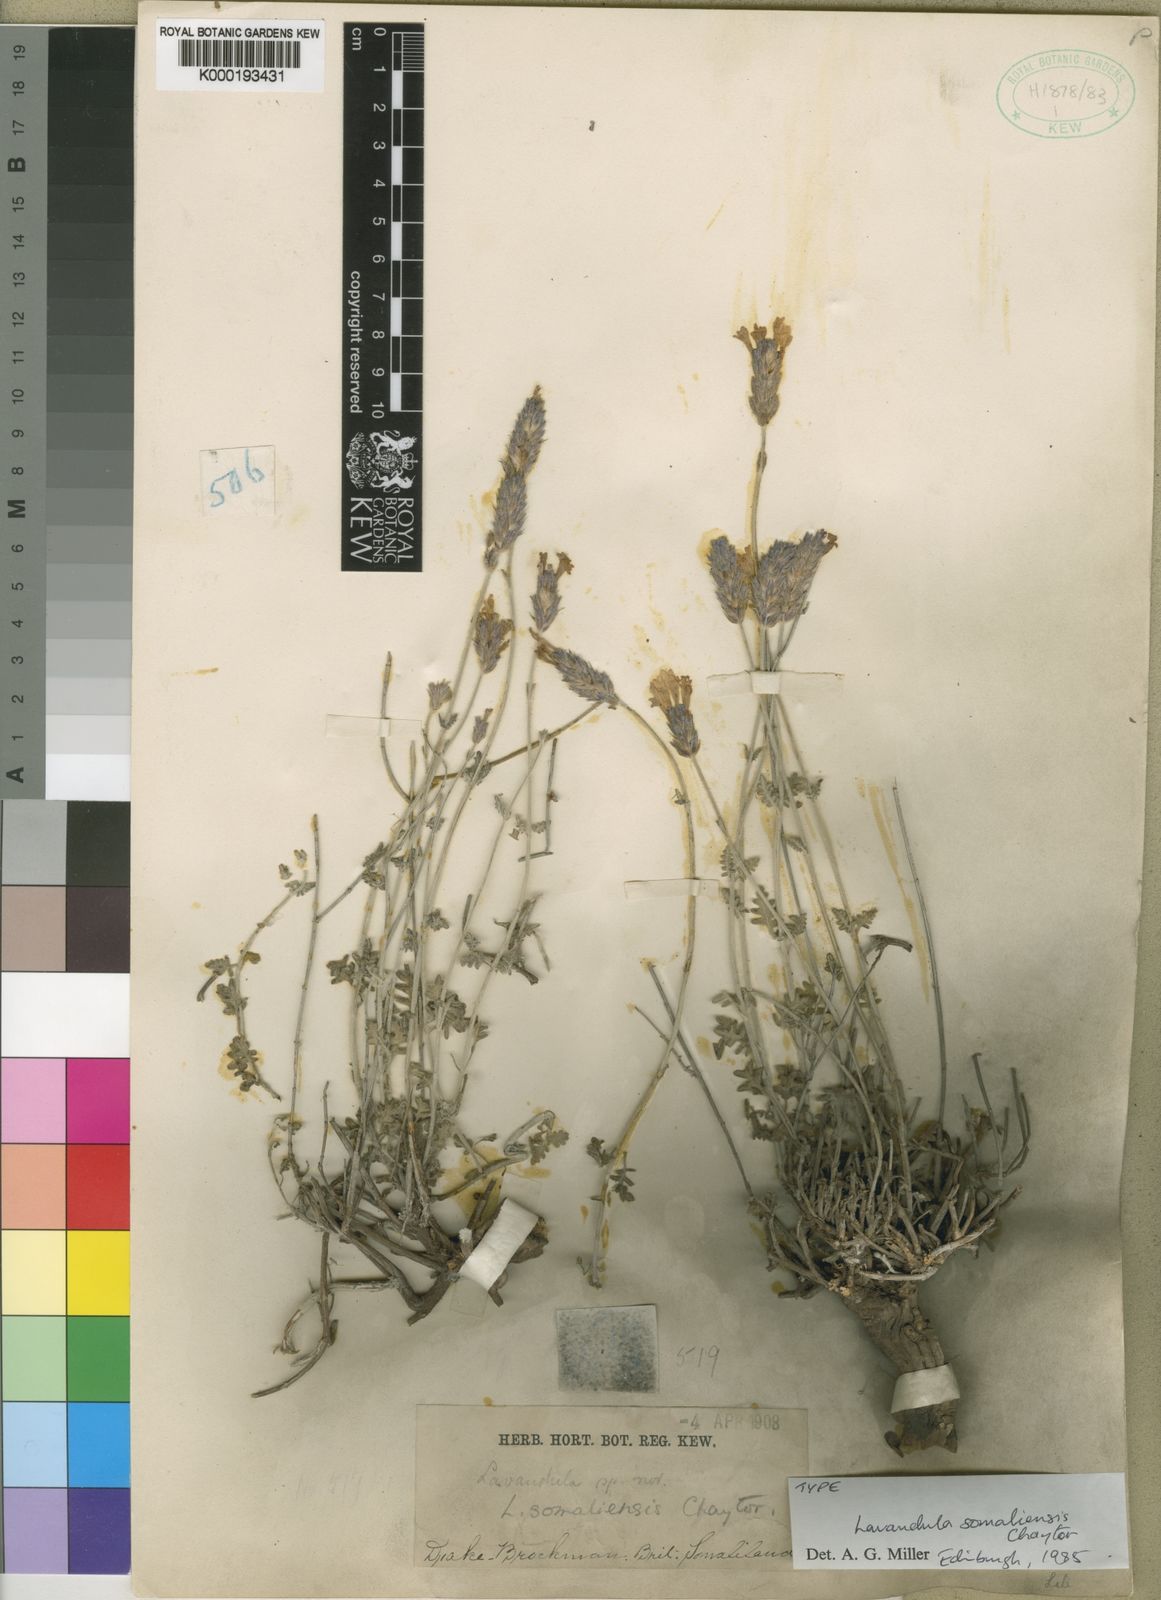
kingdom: Plantae
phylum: Tracheophyta
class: Magnoliopsida
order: Lamiales
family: Lamiaceae
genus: Lavandula
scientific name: Lavandula somaliensis
